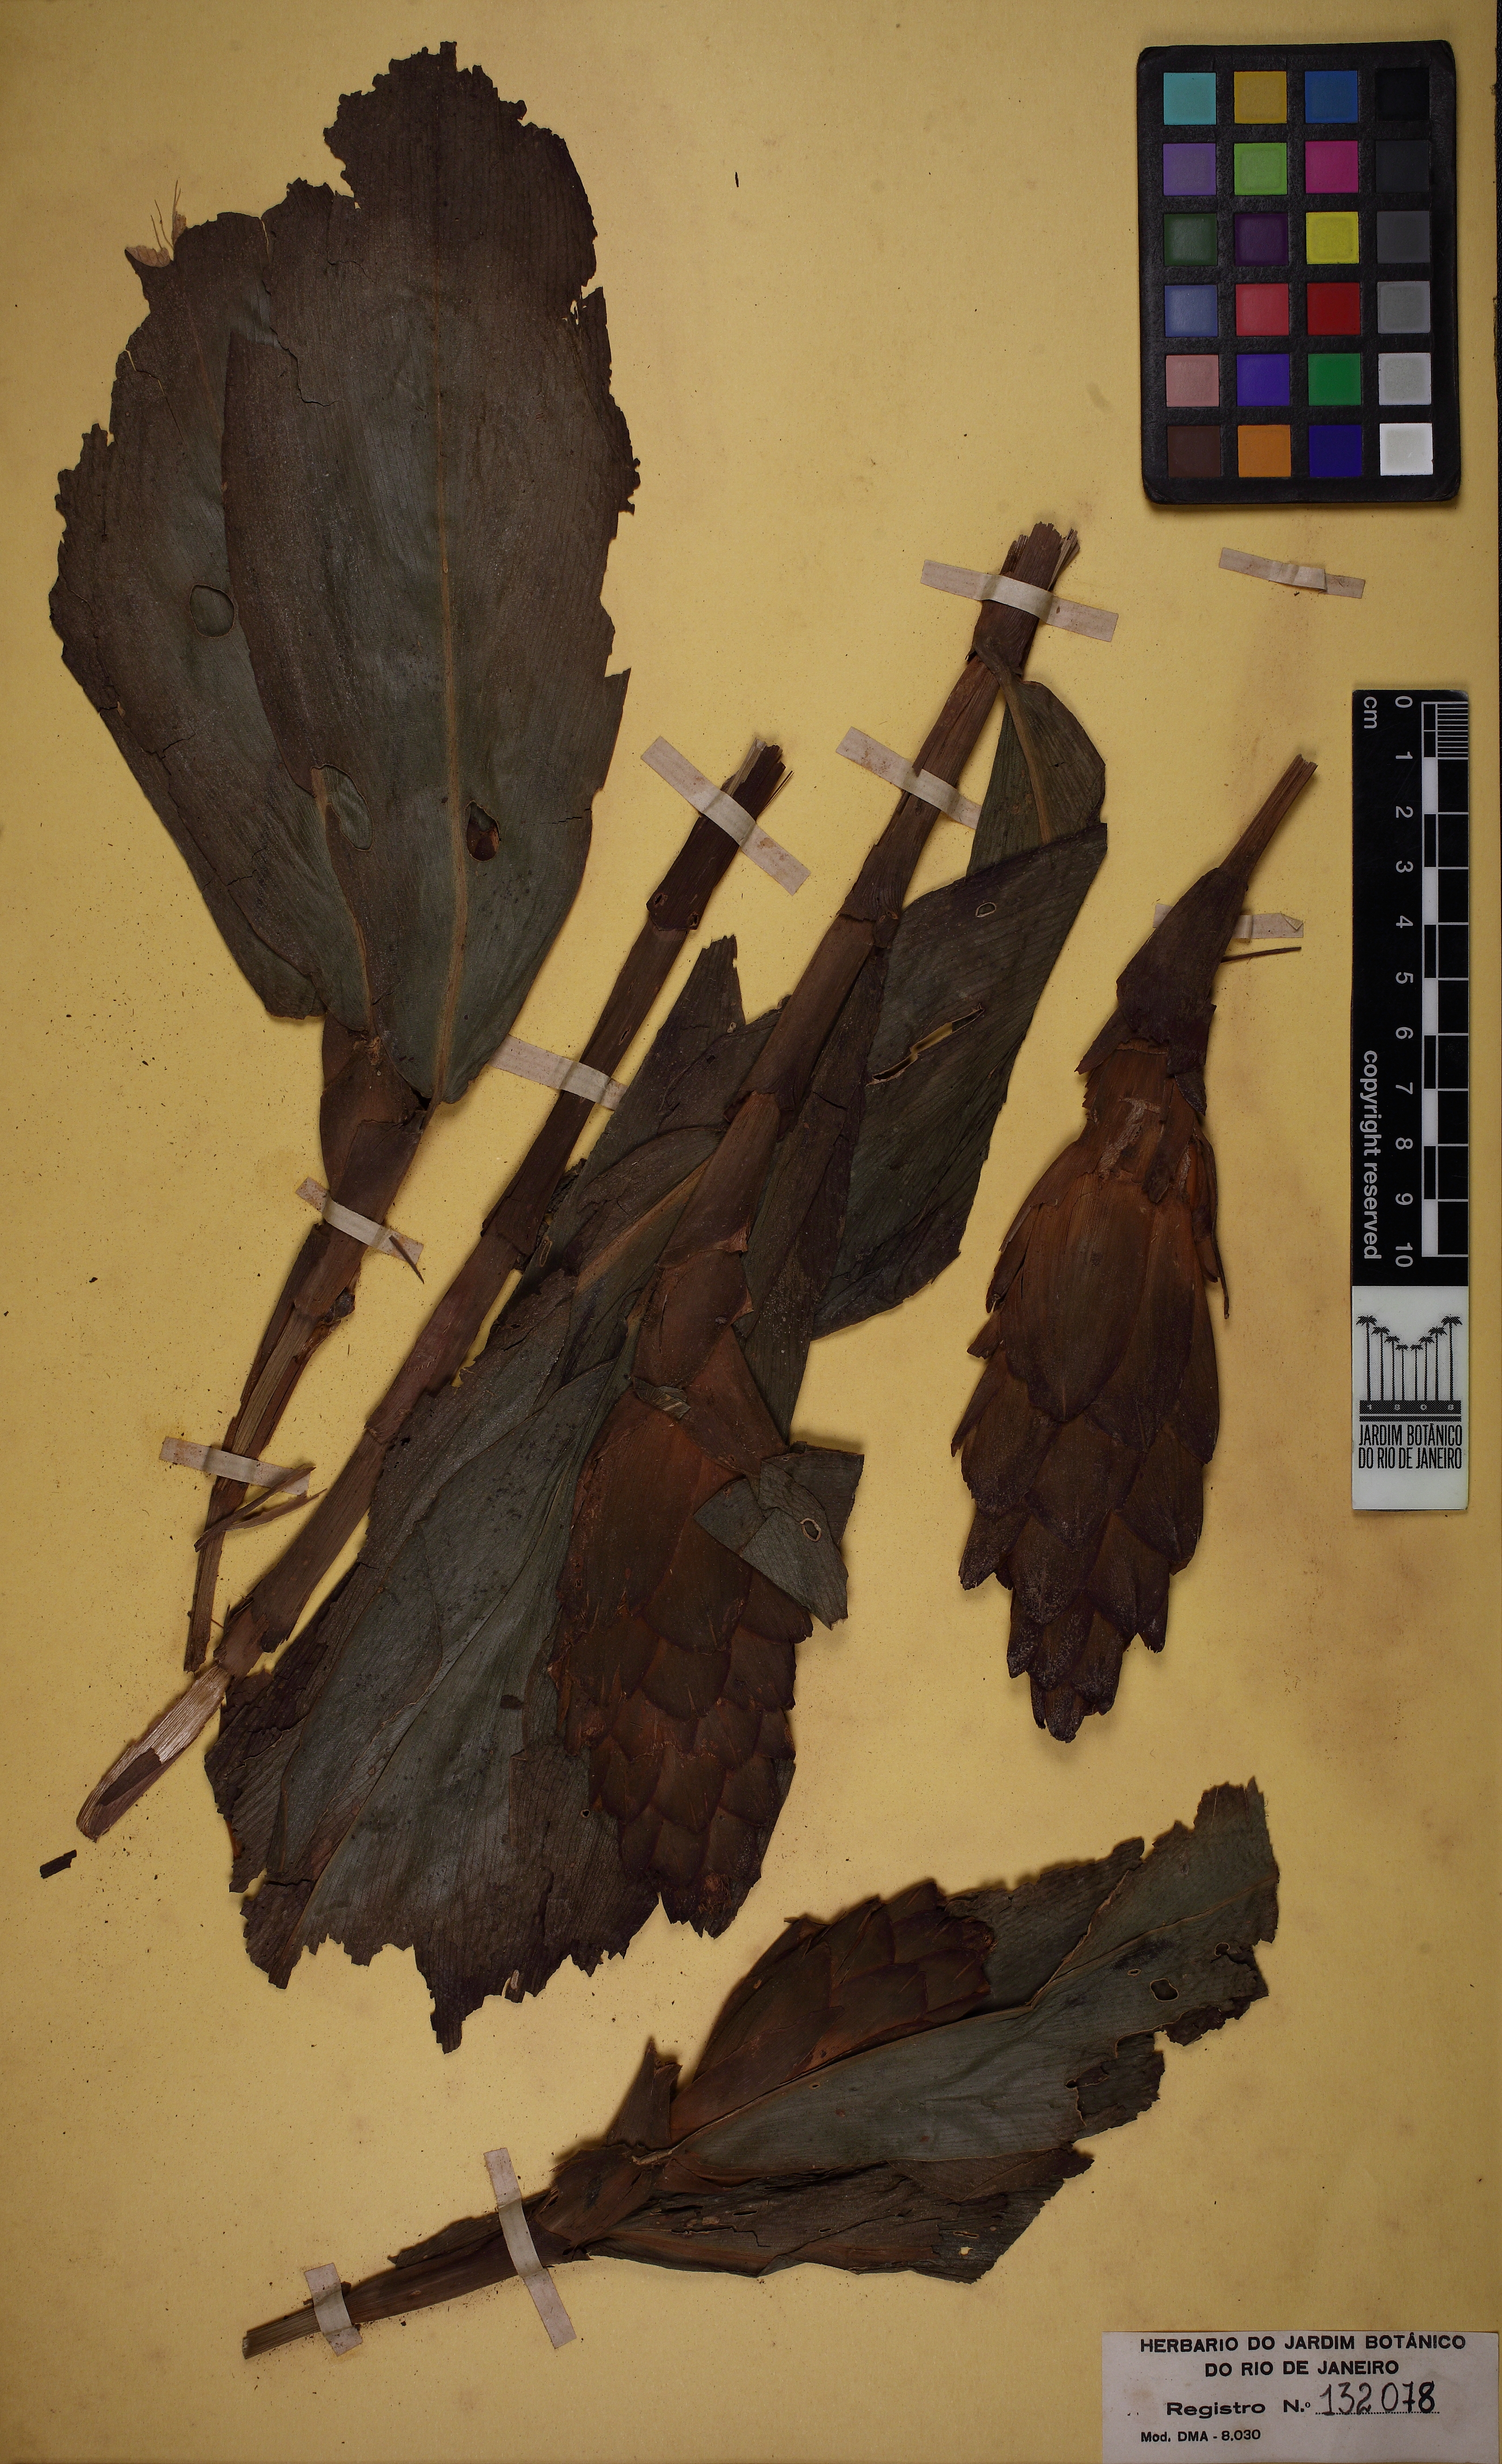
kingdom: Plantae
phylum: Tracheophyta
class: Liliopsida
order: Zingiberales
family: Costaceae
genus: Costus
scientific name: Costus arabicus
